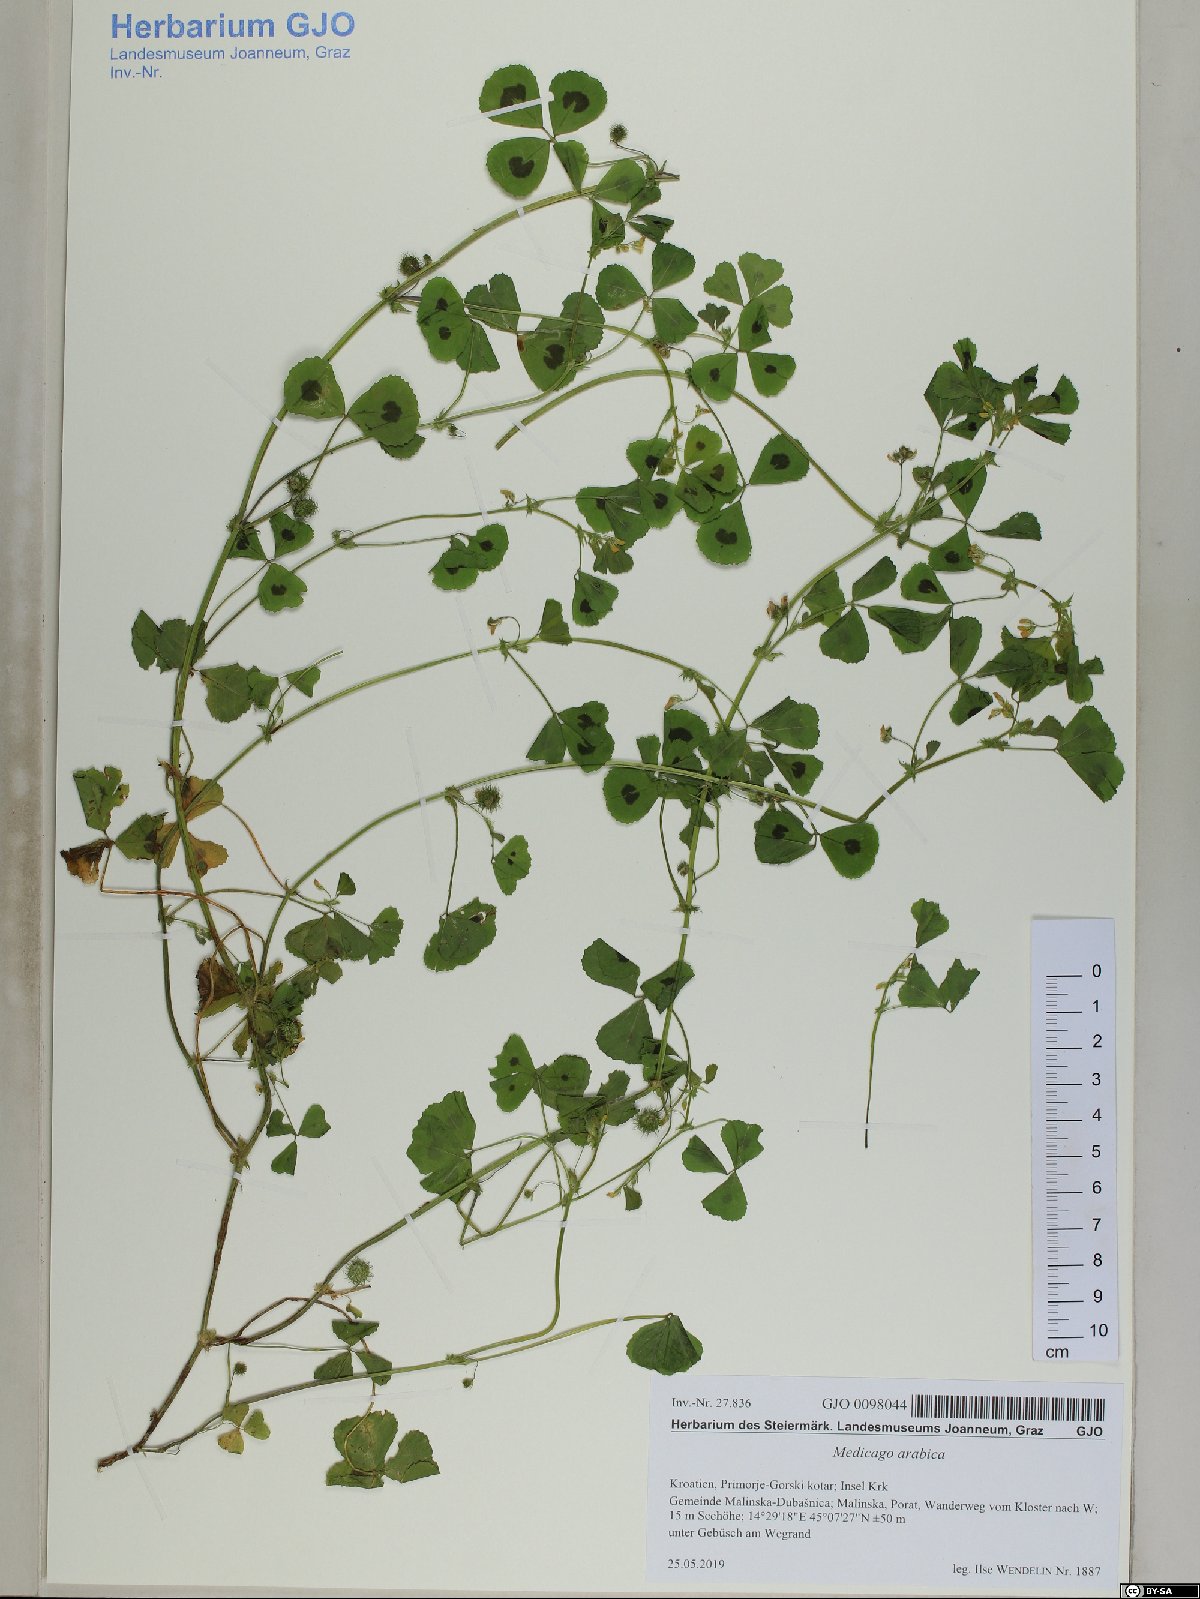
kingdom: Plantae
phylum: Tracheophyta
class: Magnoliopsida
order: Fabales
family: Fabaceae
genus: Medicago
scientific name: Medicago arabica
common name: Spotted medick
